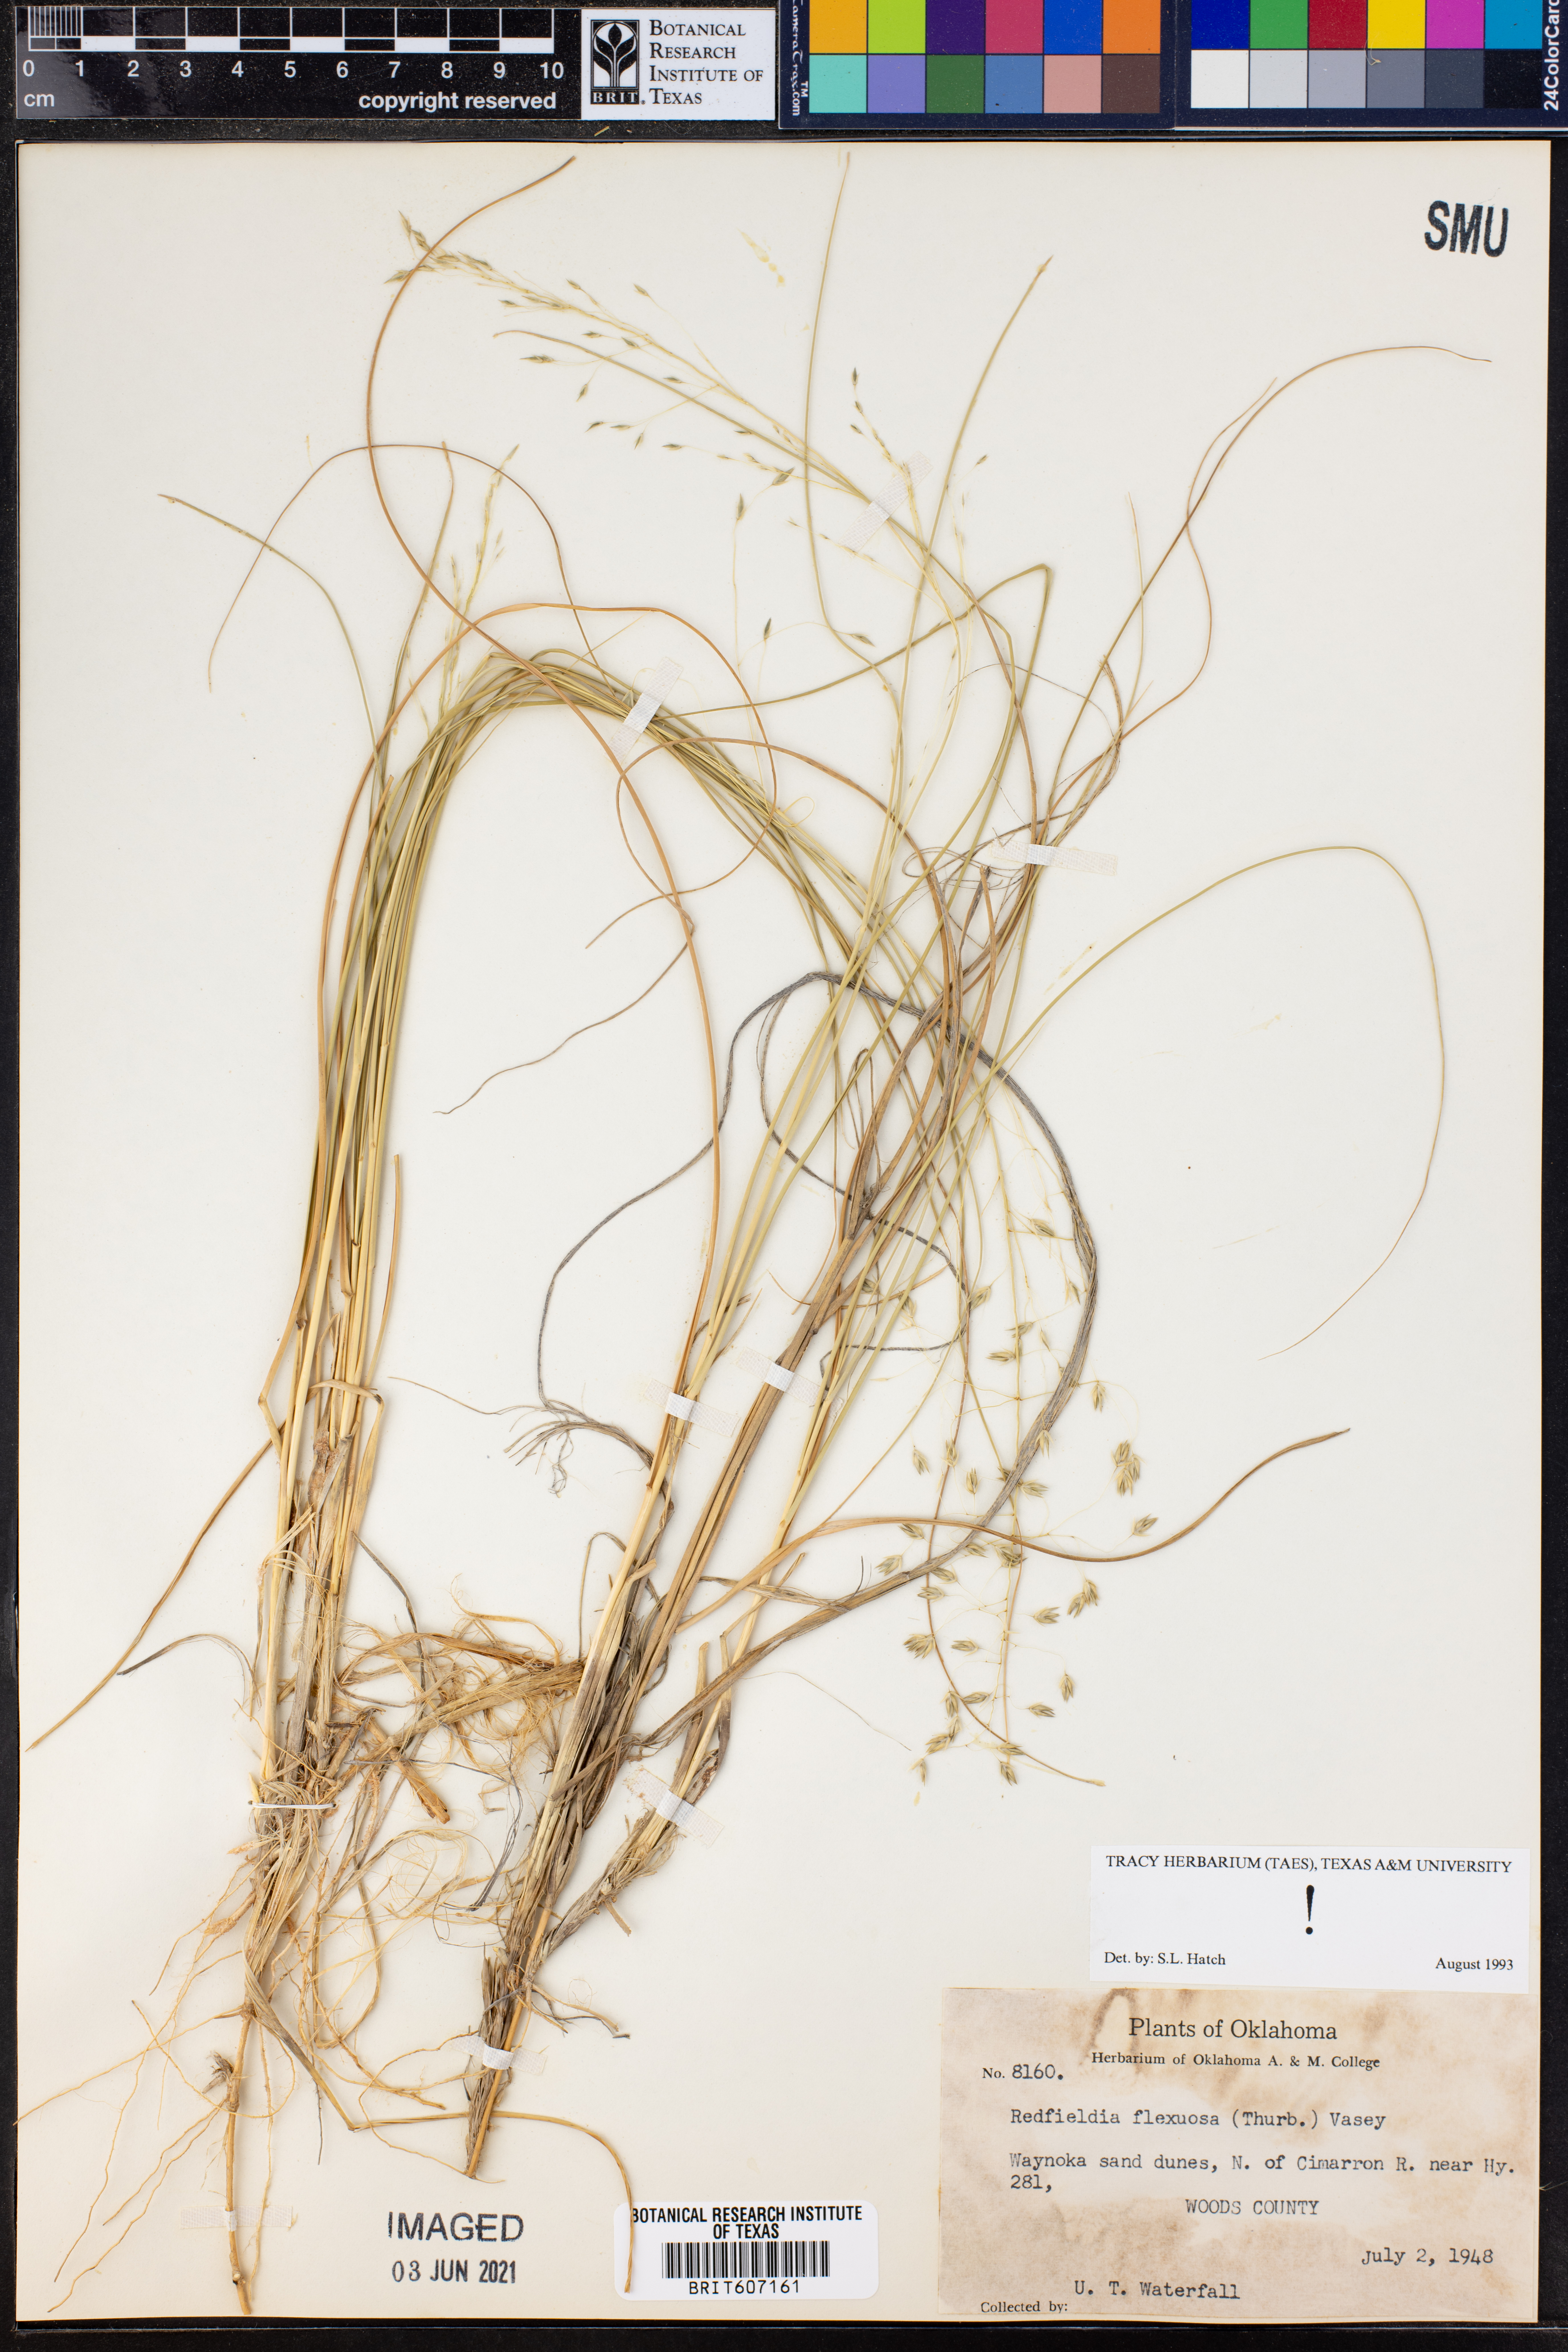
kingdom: Plantae
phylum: Tracheophyta
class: Liliopsida
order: Poales
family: Poaceae
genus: Muhlenbergia
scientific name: Muhlenbergia multiflora
